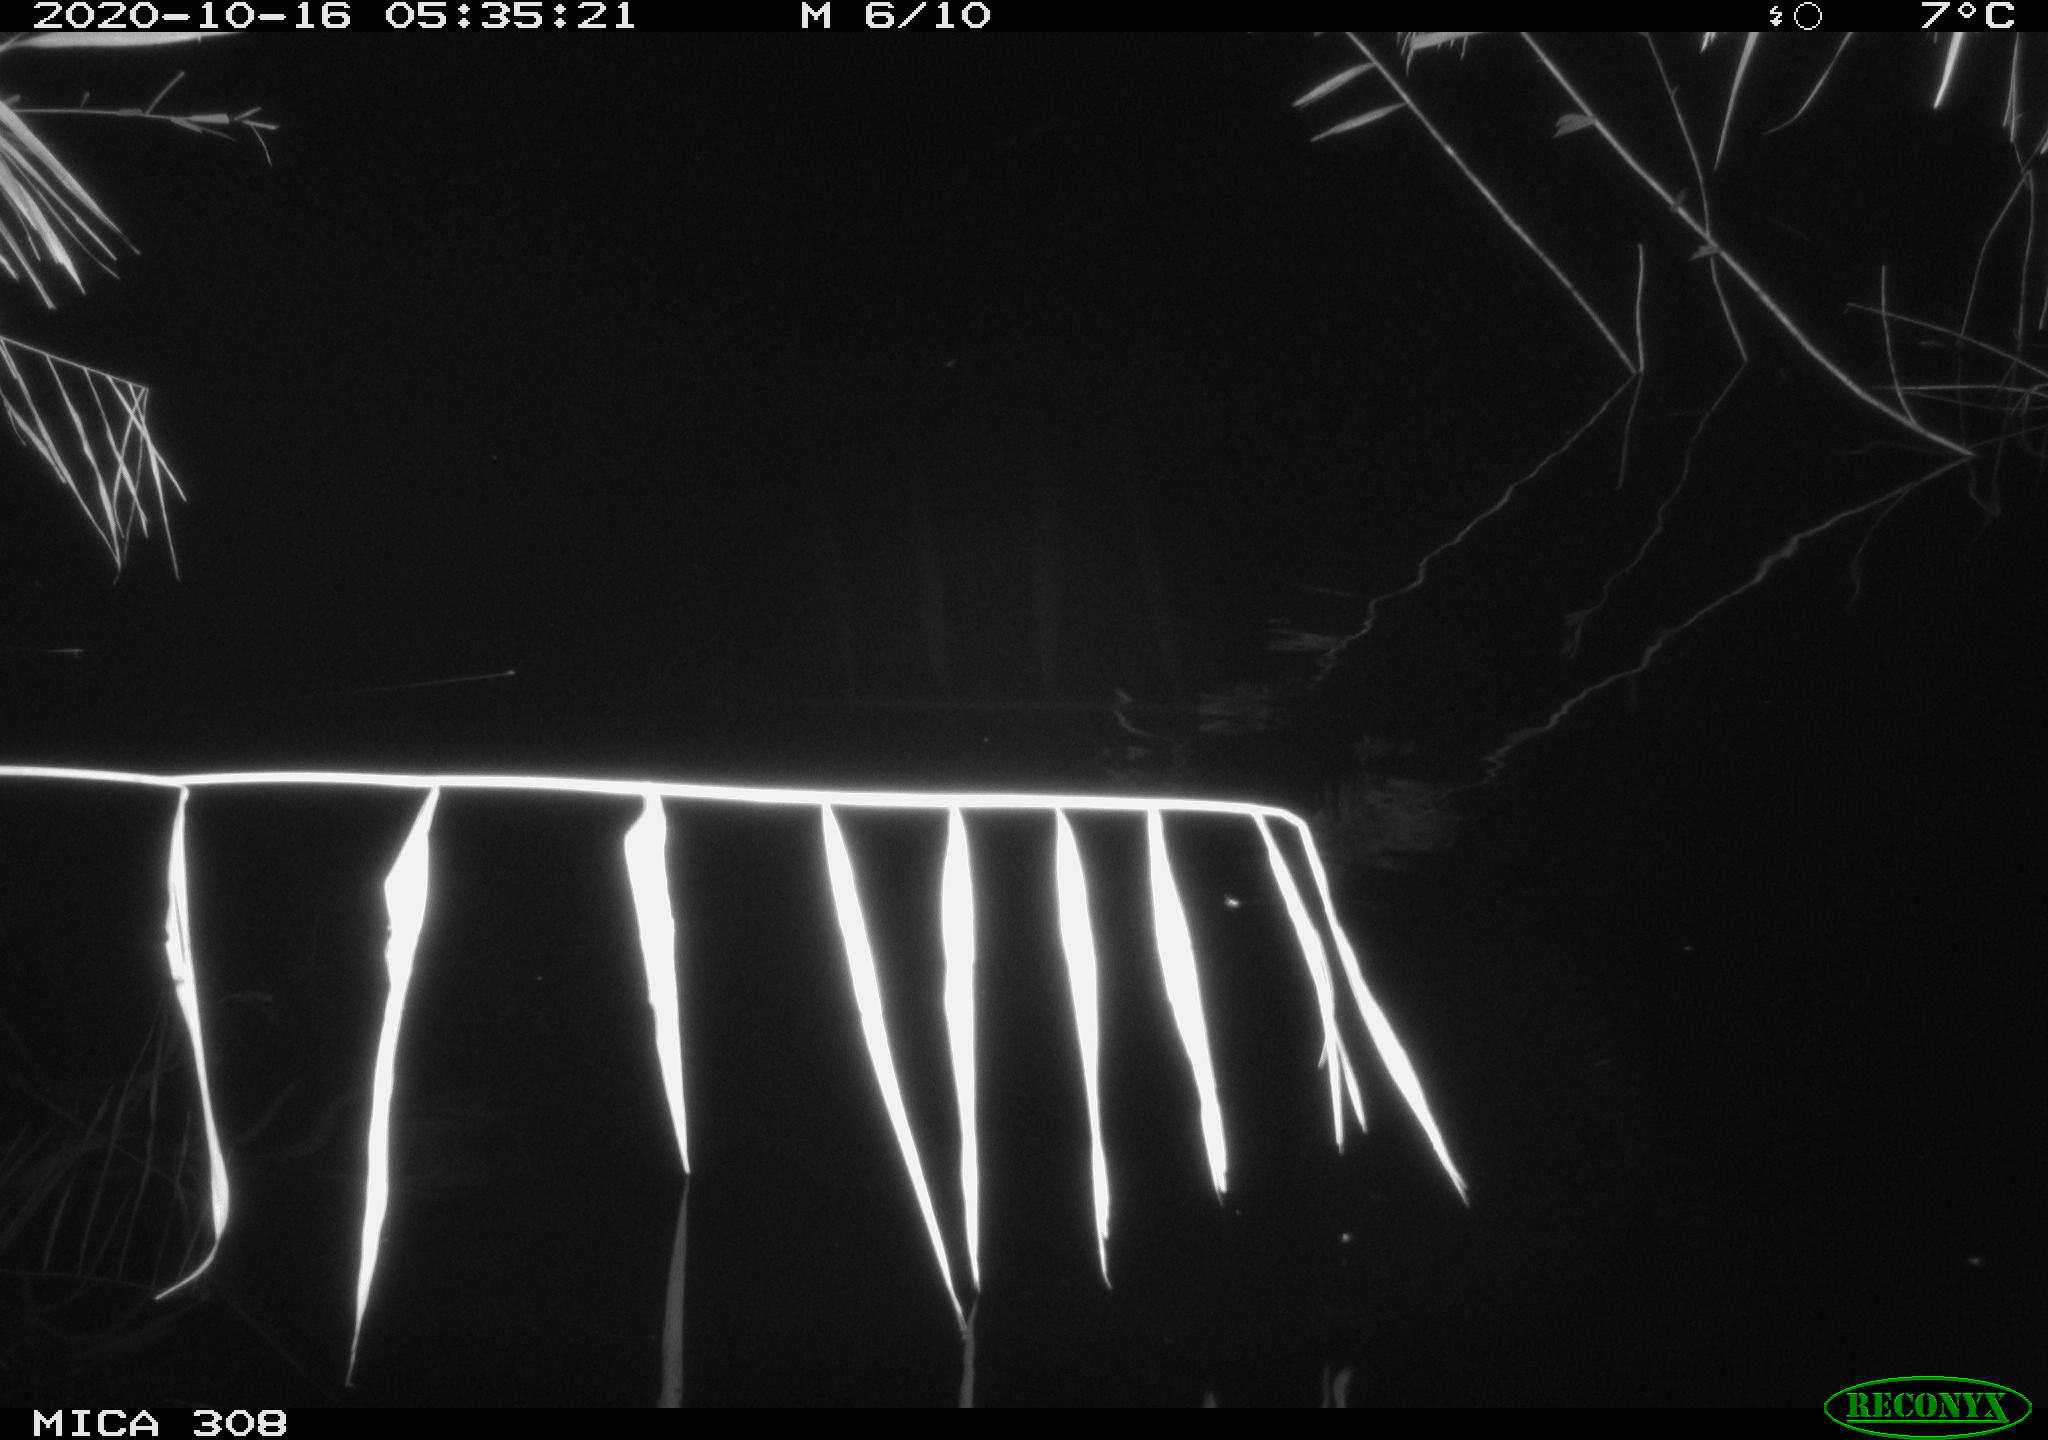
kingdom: Animalia
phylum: Chordata
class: Aves
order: Anseriformes
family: Anatidae
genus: Anas
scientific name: Anas platyrhynchos
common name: Mallard
